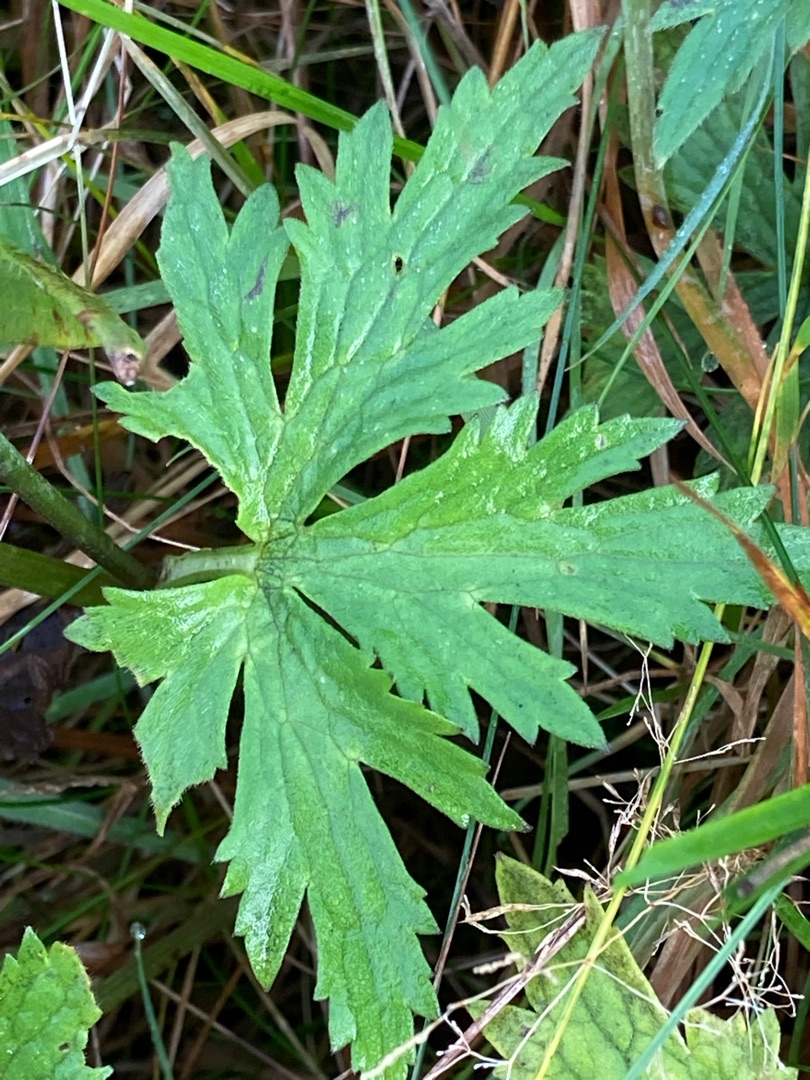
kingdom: Plantae
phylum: Tracheophyta
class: Magnoliopsida
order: Ranunculales
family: Ranunculaceae
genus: Ranunculus
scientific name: Ranunculus acris
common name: Bidende ranunkel
